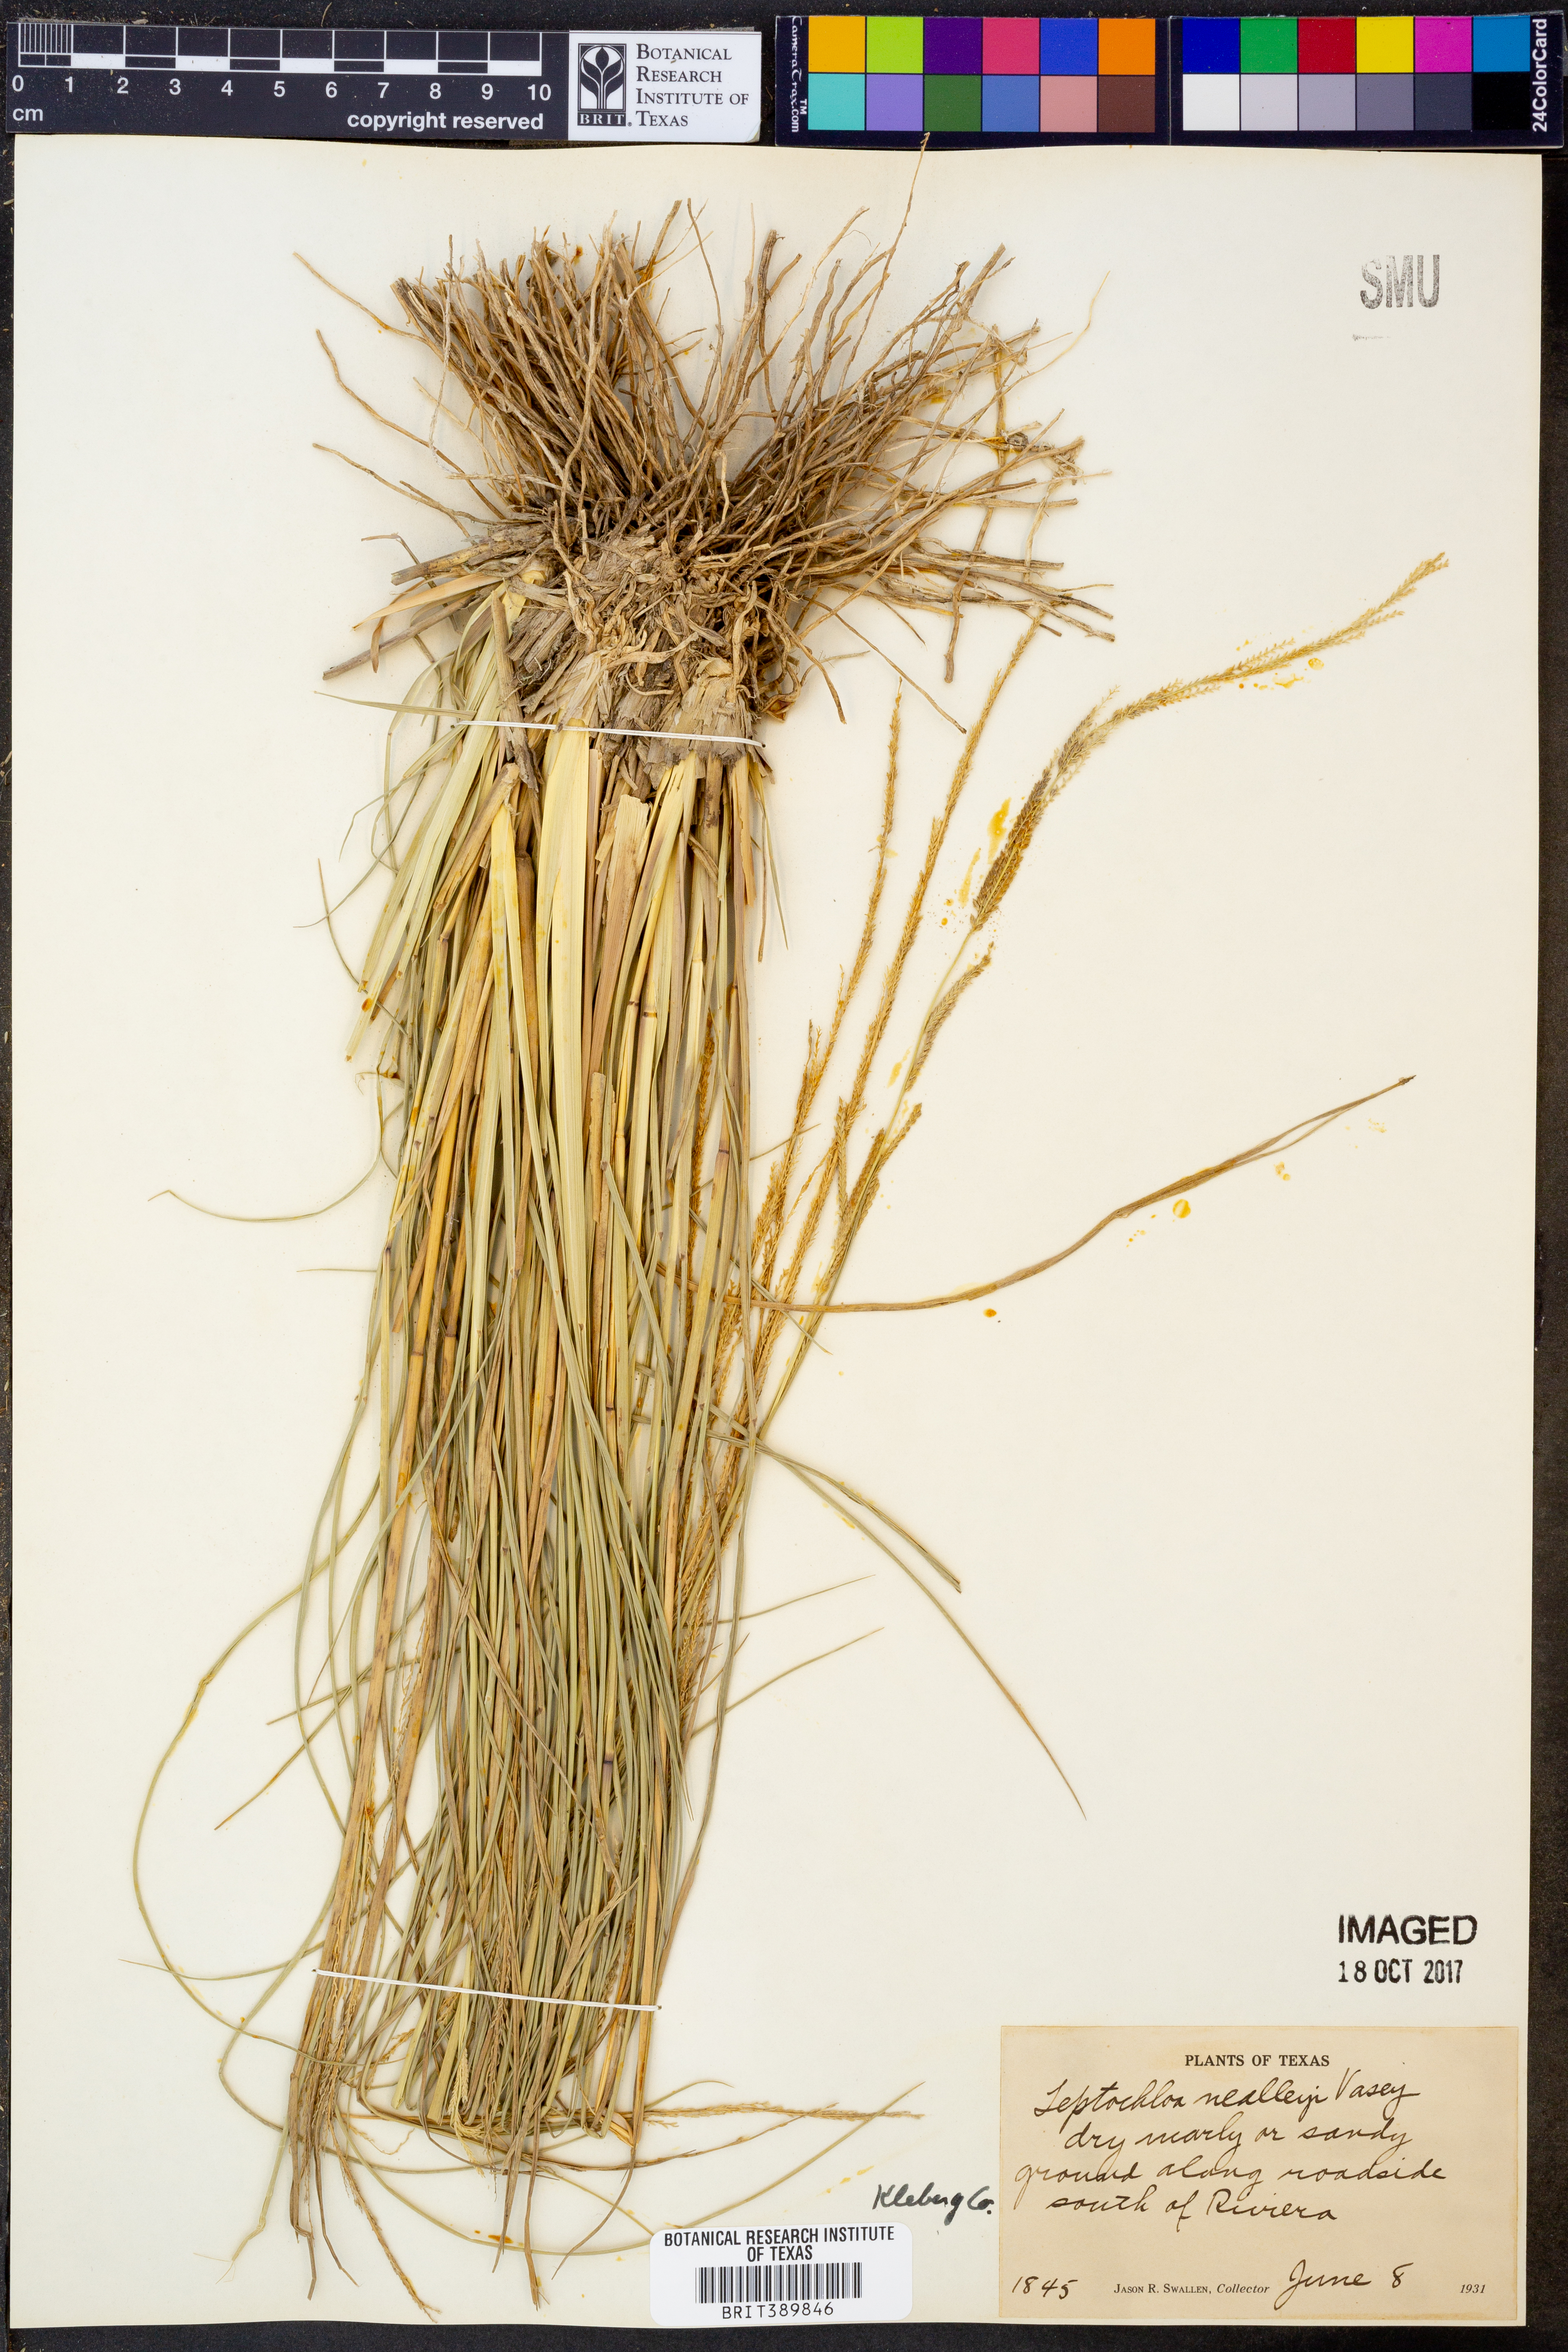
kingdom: Plantae
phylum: Tracheophyta
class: Liliopsida
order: Poales
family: Poaceae
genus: Leptochloa
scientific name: Leptochloa nealleyi
